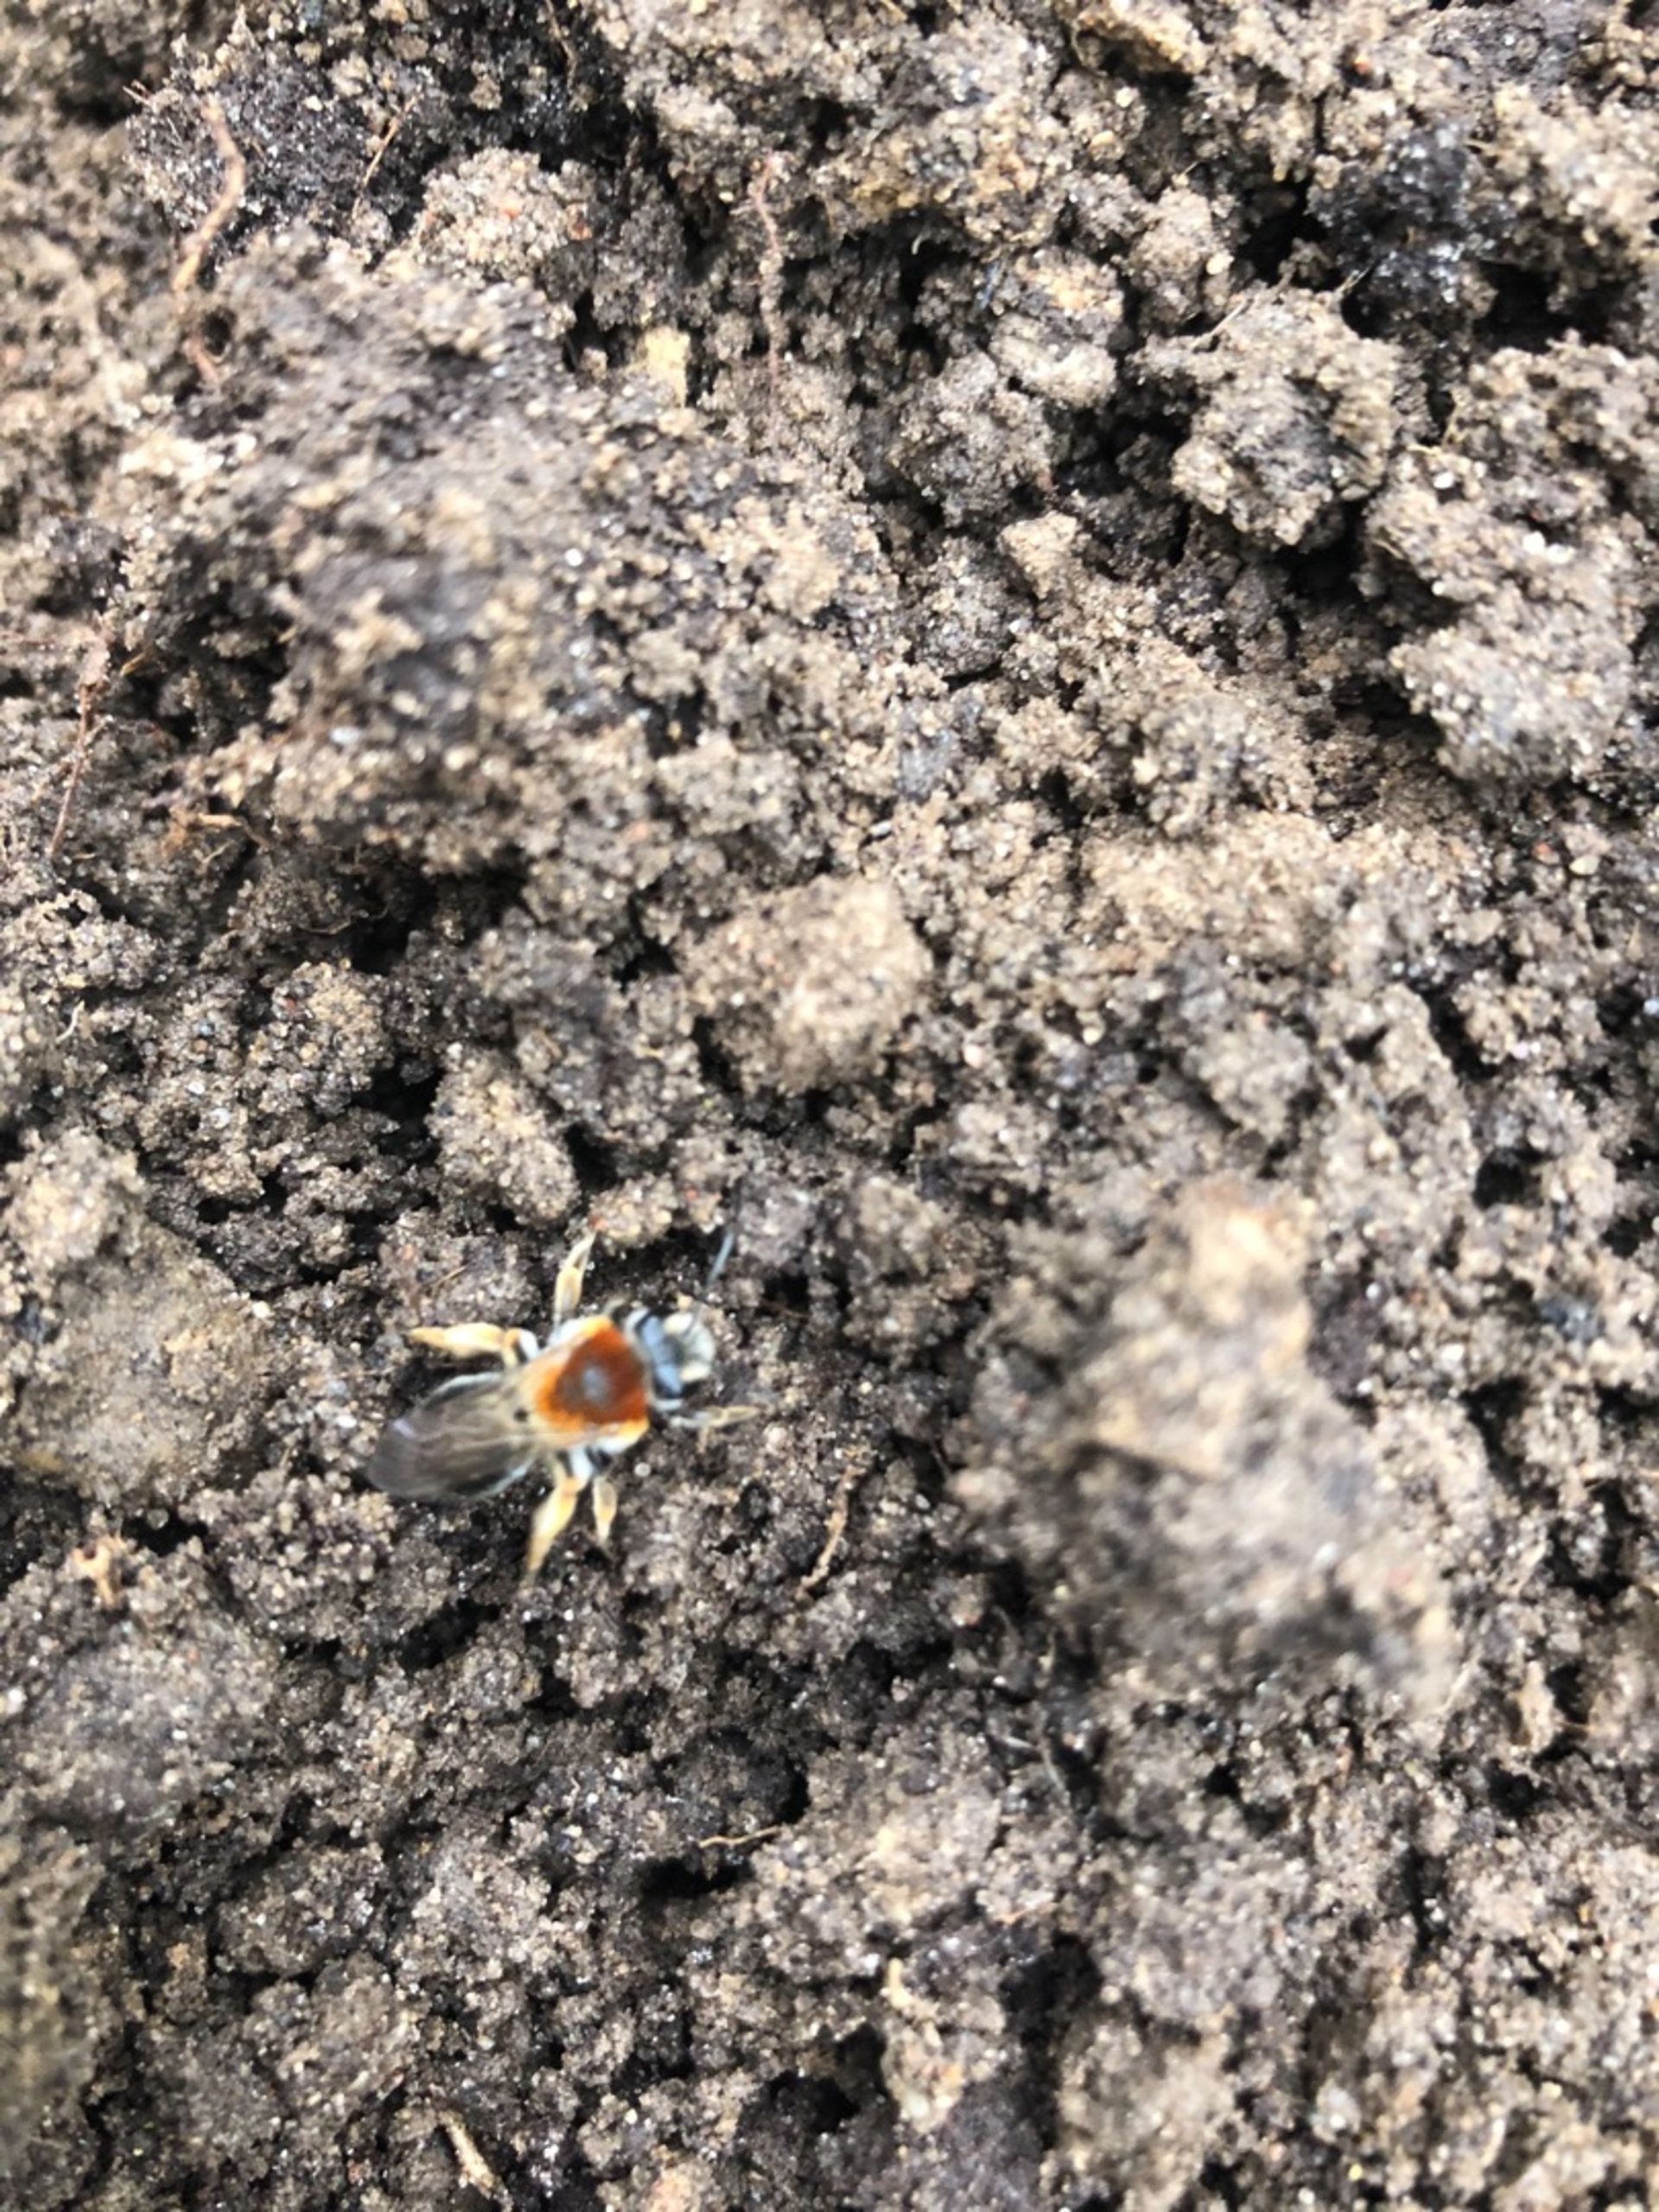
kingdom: Animalia
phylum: Arthropoda
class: Insecta
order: Hymenoptera
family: Andrenidae
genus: Andrena
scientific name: Andrena
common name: Jordbier
